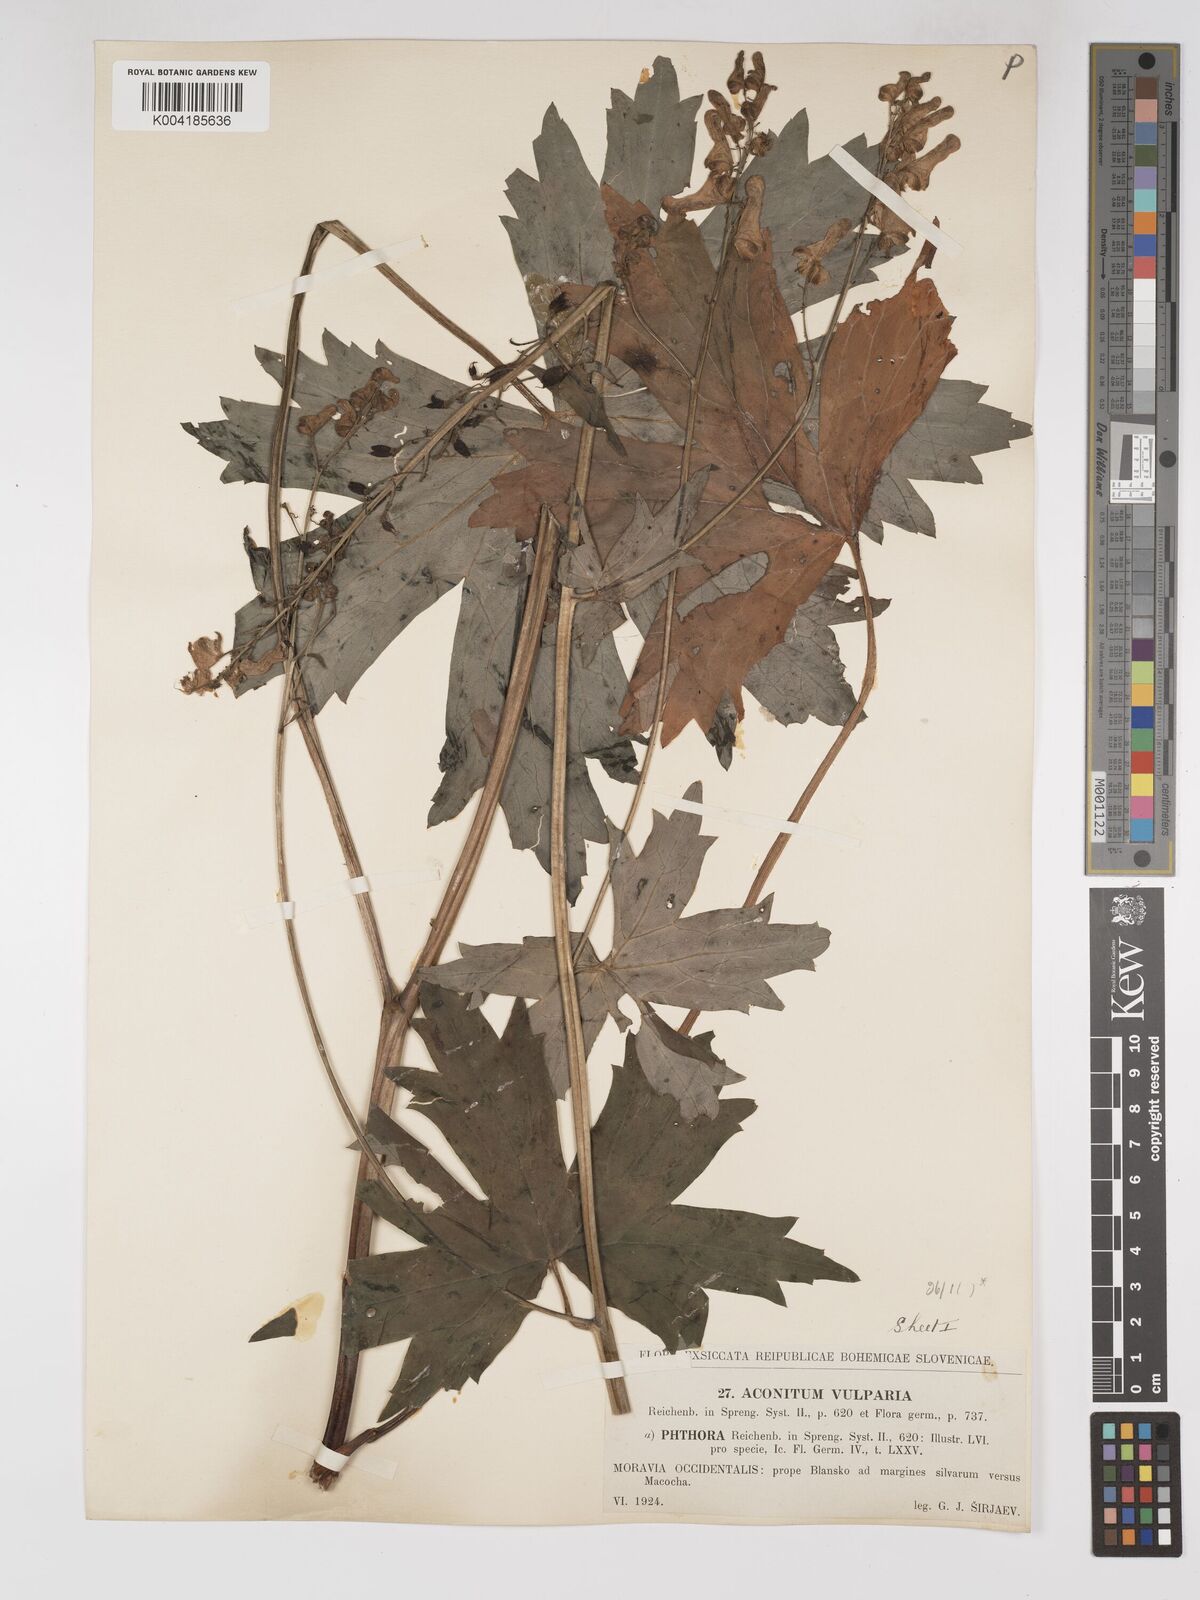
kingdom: Plantae
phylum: Tracheophyta
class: Magnoliopsida
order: Ranunculales
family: Ranunculaceae
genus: Aconitum
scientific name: Aconitum lycoctonum
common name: Wolf's-bane
